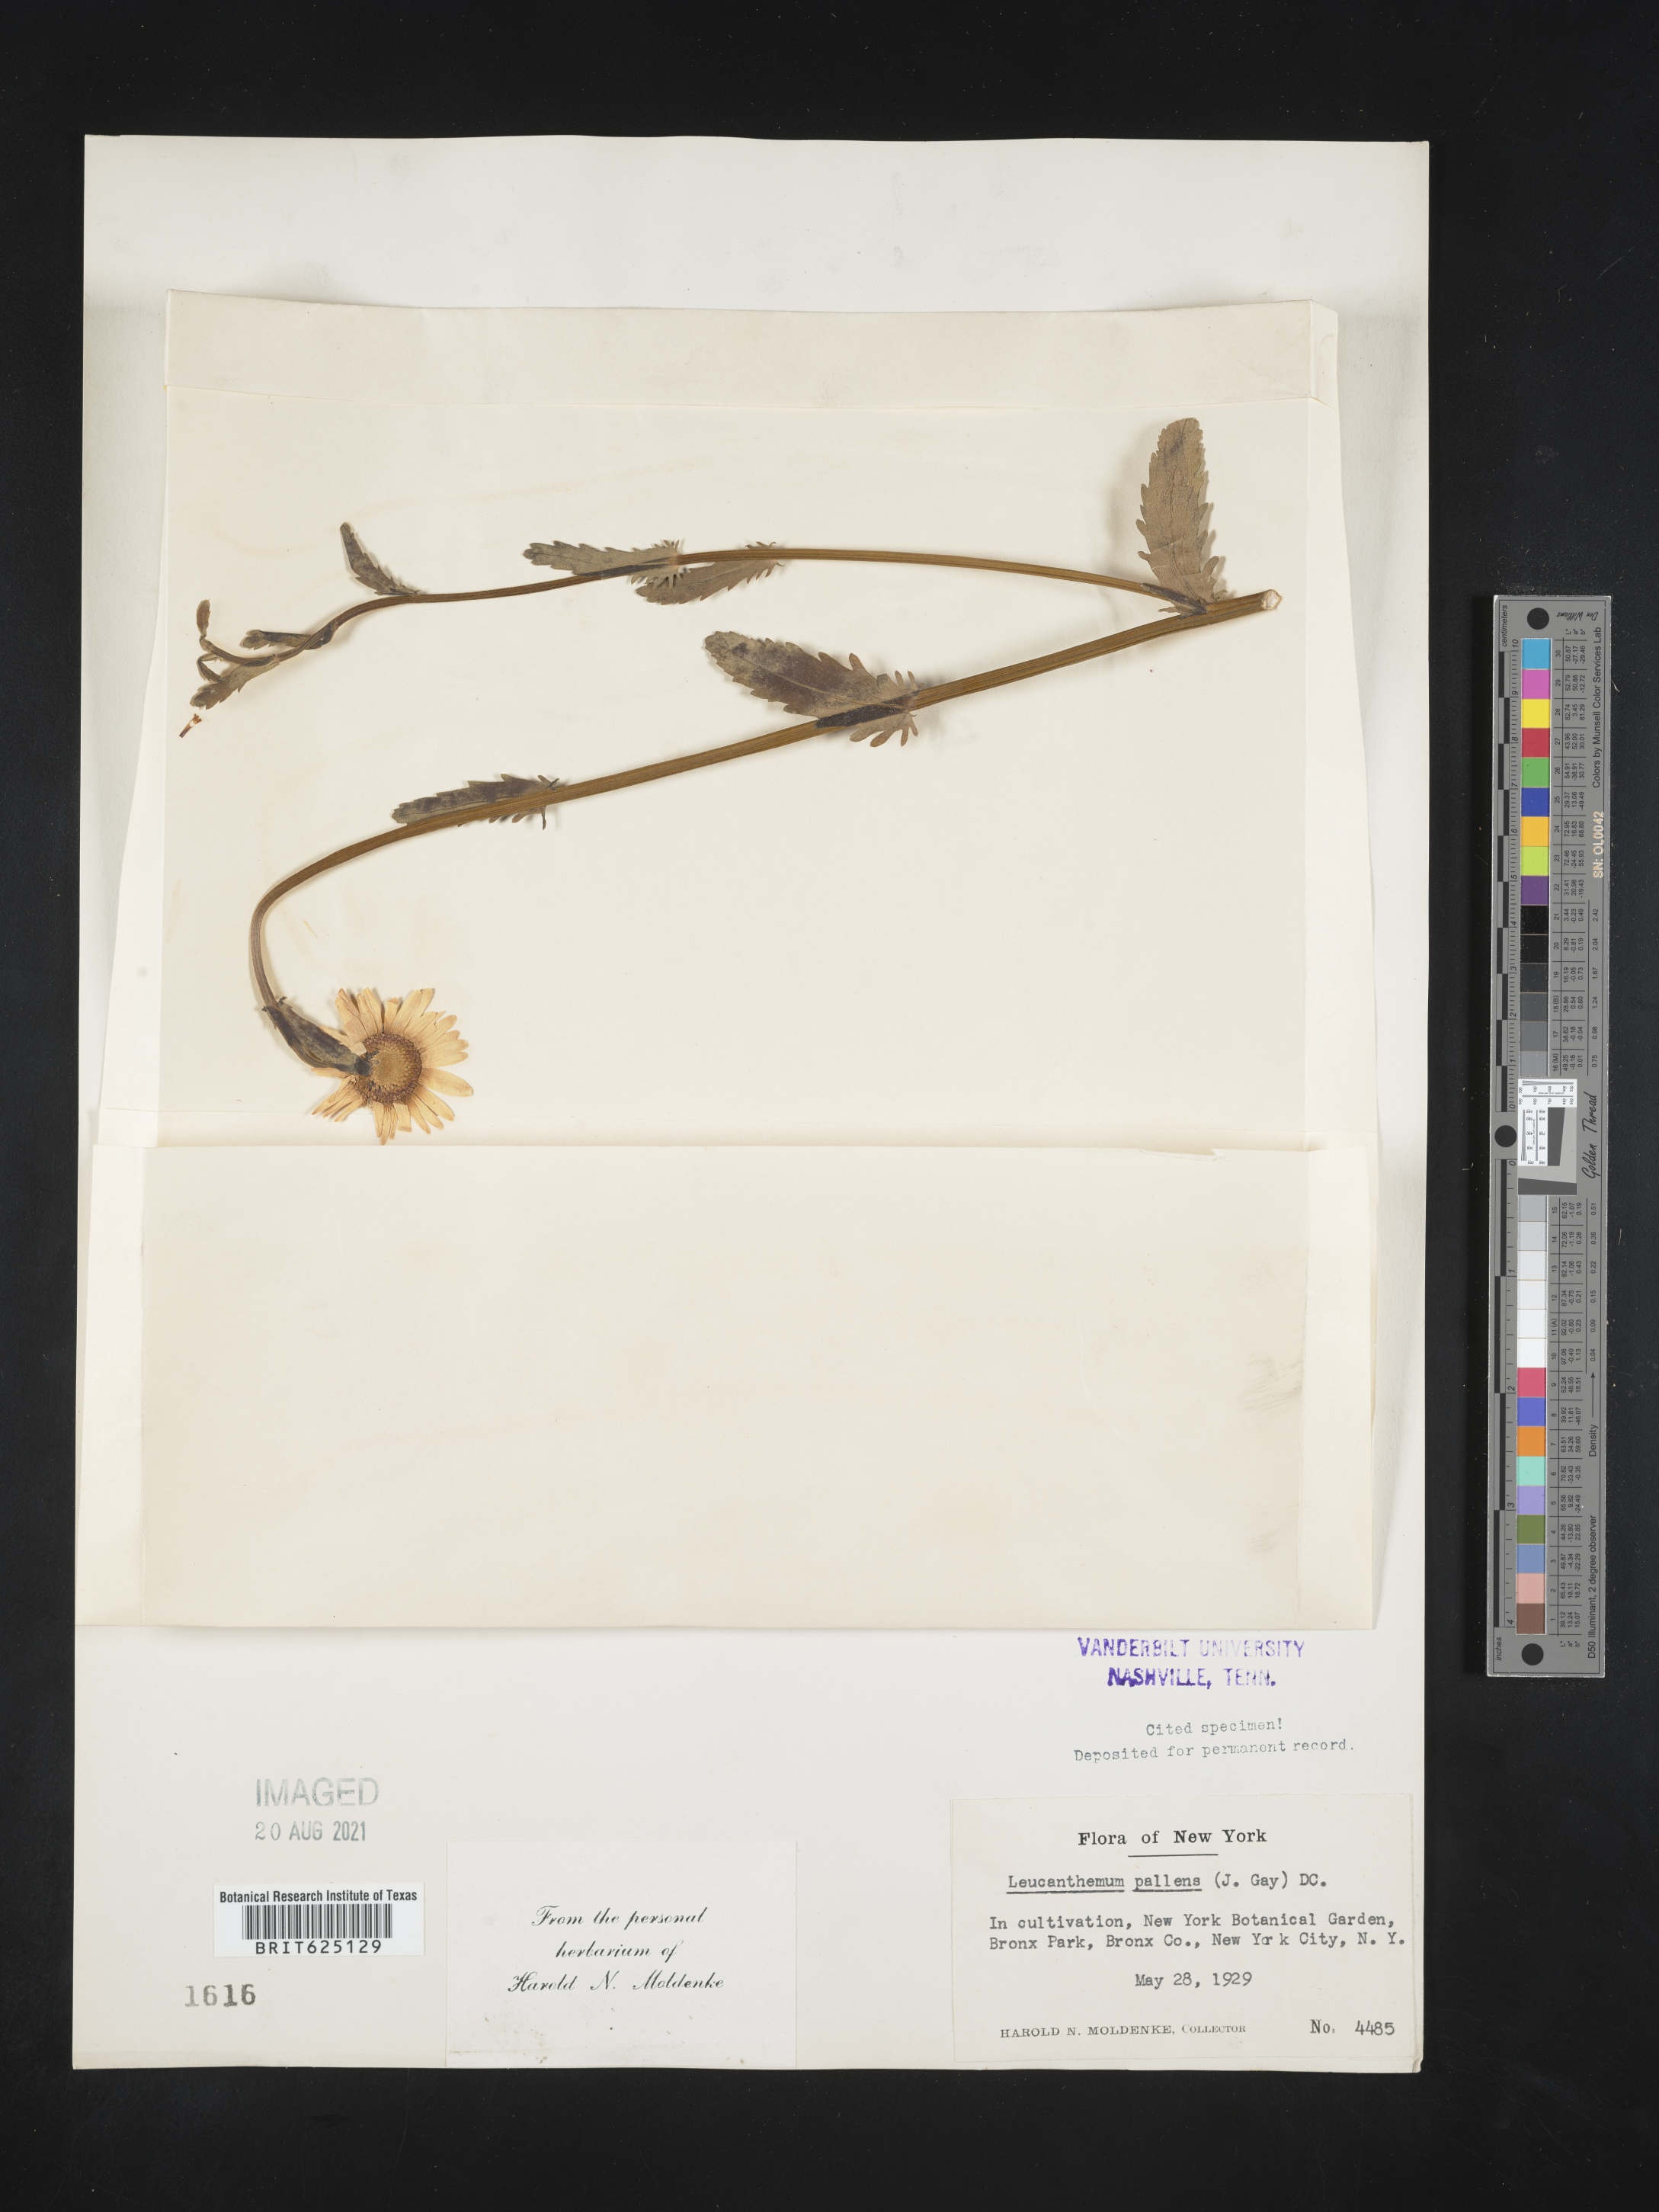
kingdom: Plantae
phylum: Tracheophyta
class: Magnoliopsida
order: Asterales
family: Asteraceae
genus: Leucanthemum
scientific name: Leucanthemum pallens
